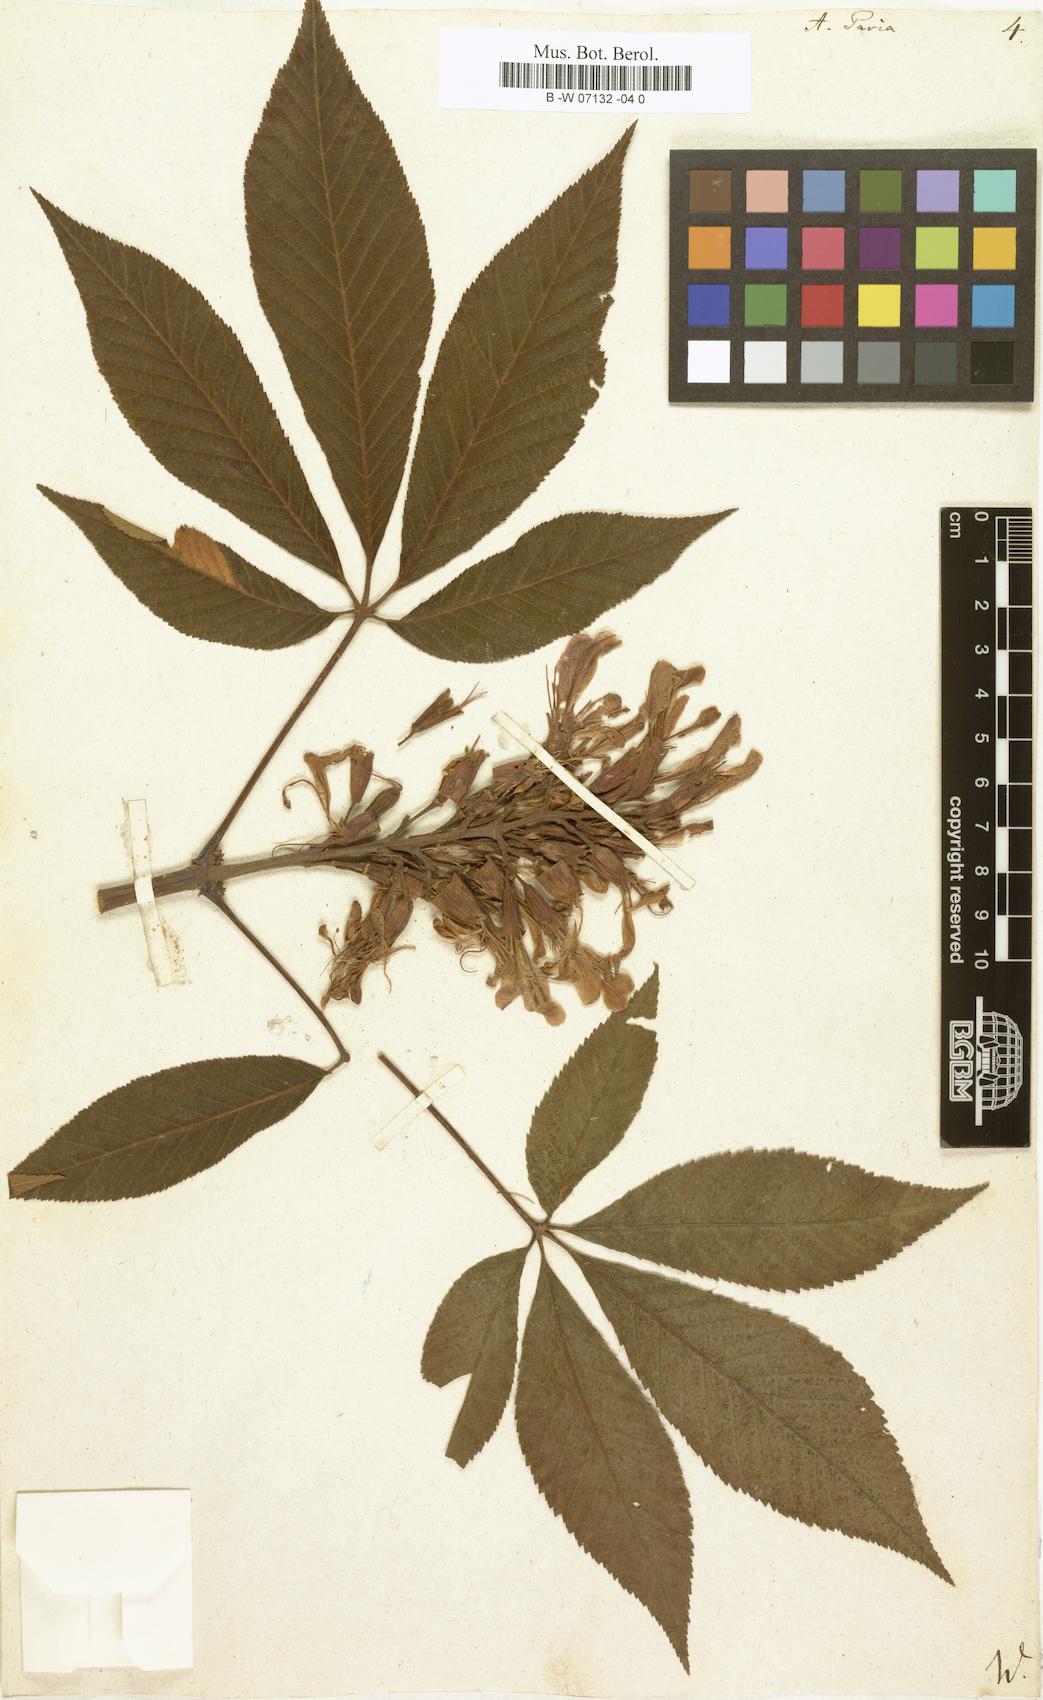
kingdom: Plantae
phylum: Tracheophyta
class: Magnoliopsida
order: Sapindales
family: Sapindaceae
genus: Aesculus
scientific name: Aesculus pavia
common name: Red buckeye
